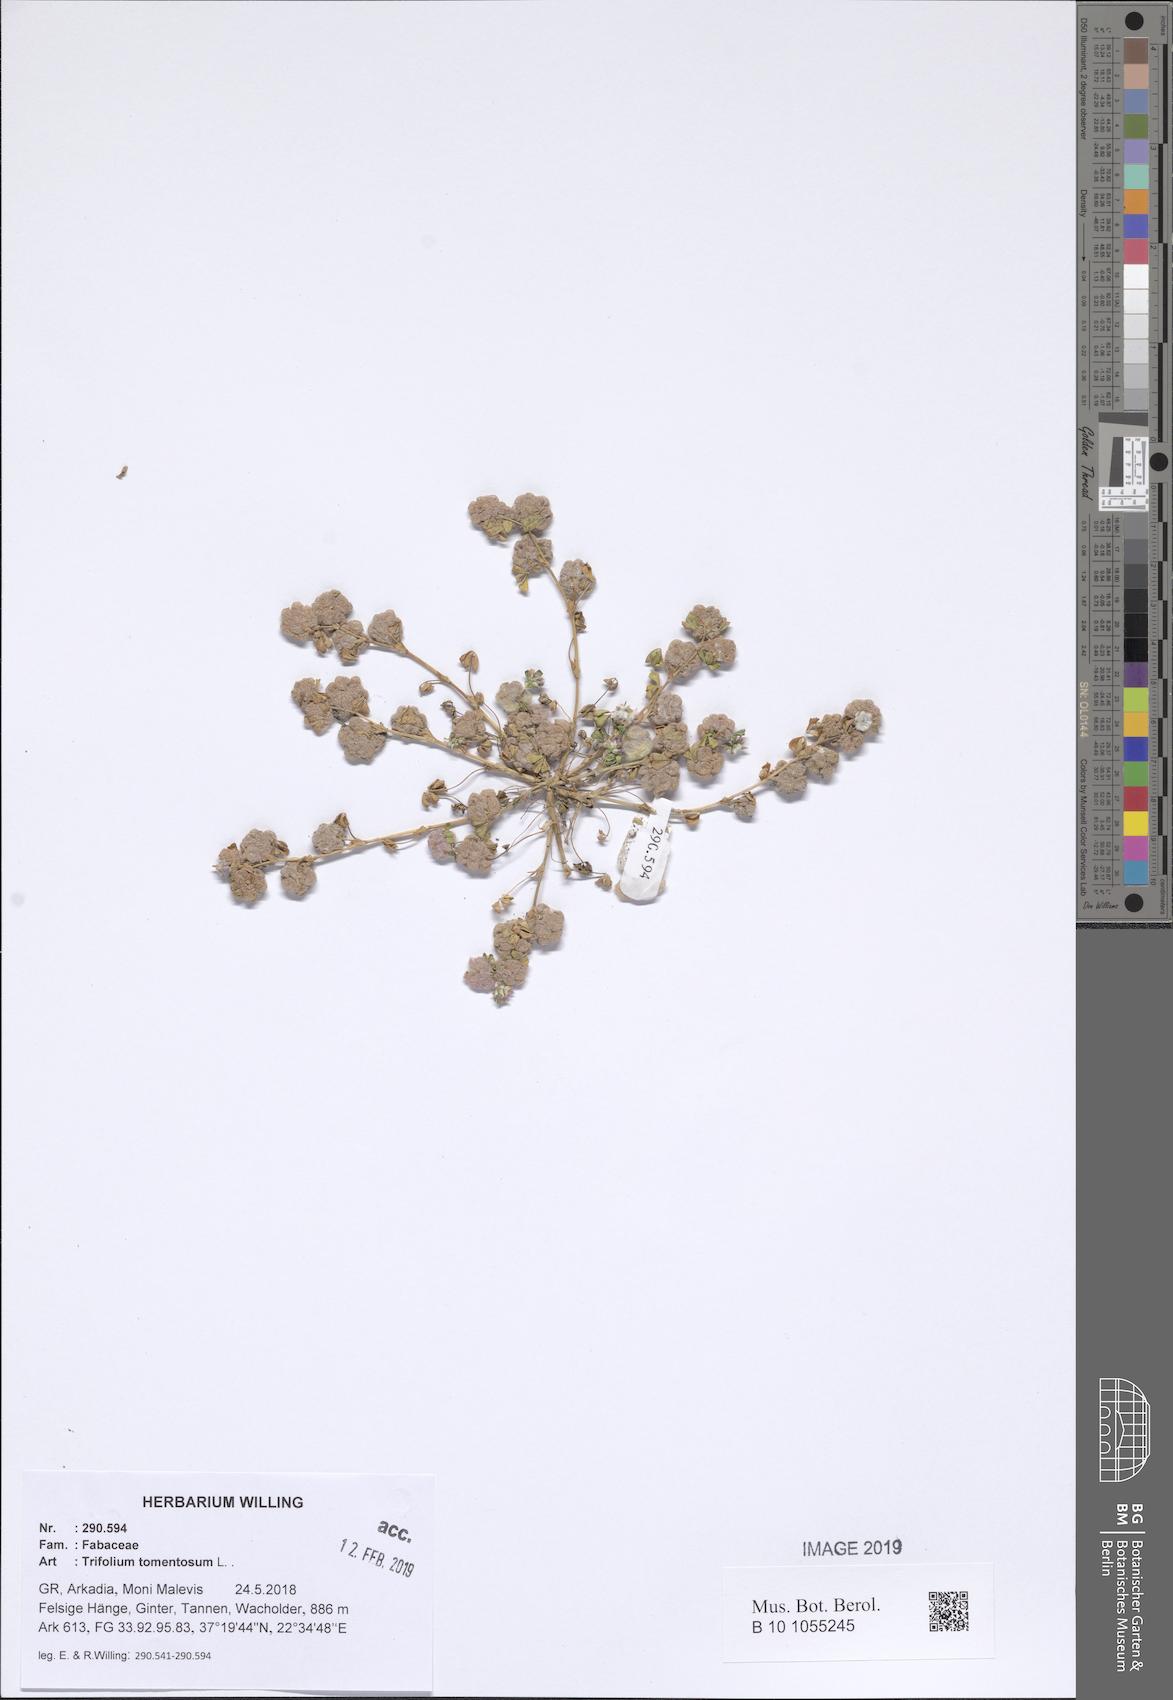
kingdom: Plantae
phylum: Tracheophyta
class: Magnoliopsida
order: Fabales
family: Fabaceae
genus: Trifolium
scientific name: Trifolium tomentosum
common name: Woolly clover
